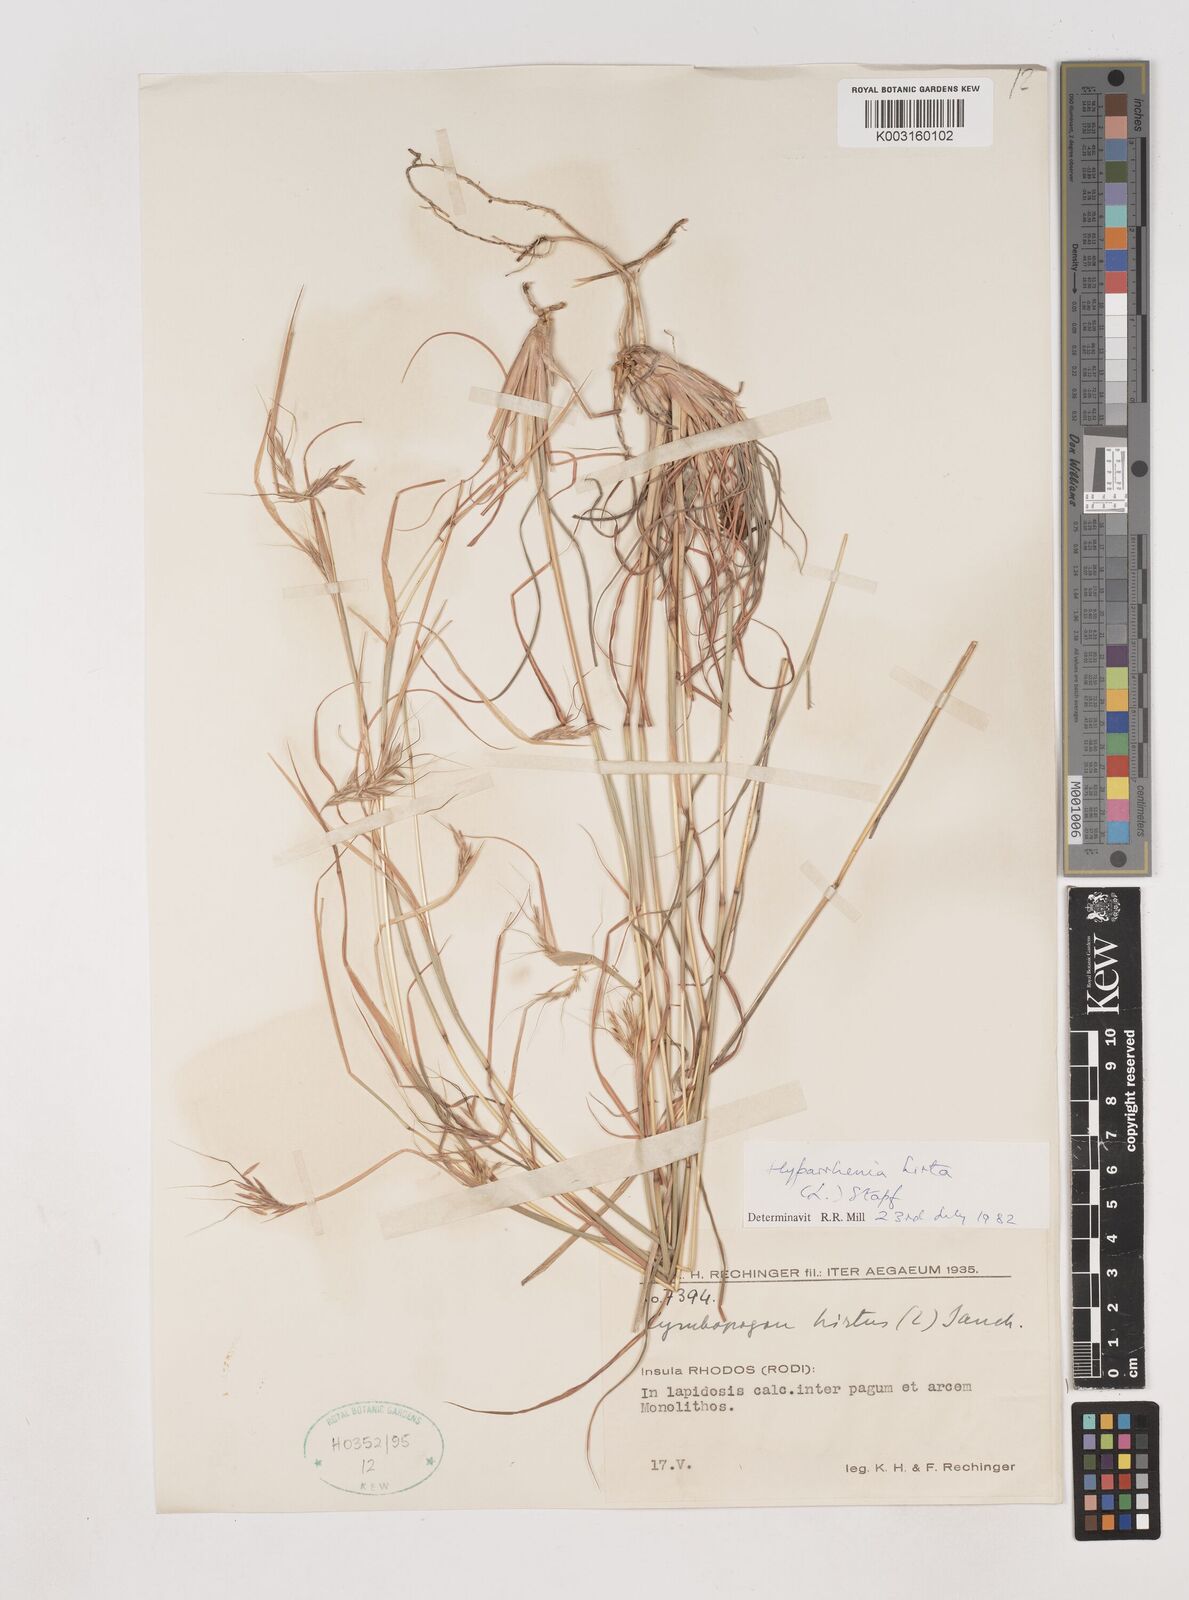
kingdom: Plantae
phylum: Tracheophyta
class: Liliopsida
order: Poales
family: Poaceae
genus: Hyparrhenia
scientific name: Hyparrhenia hirta
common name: Thatching grass
